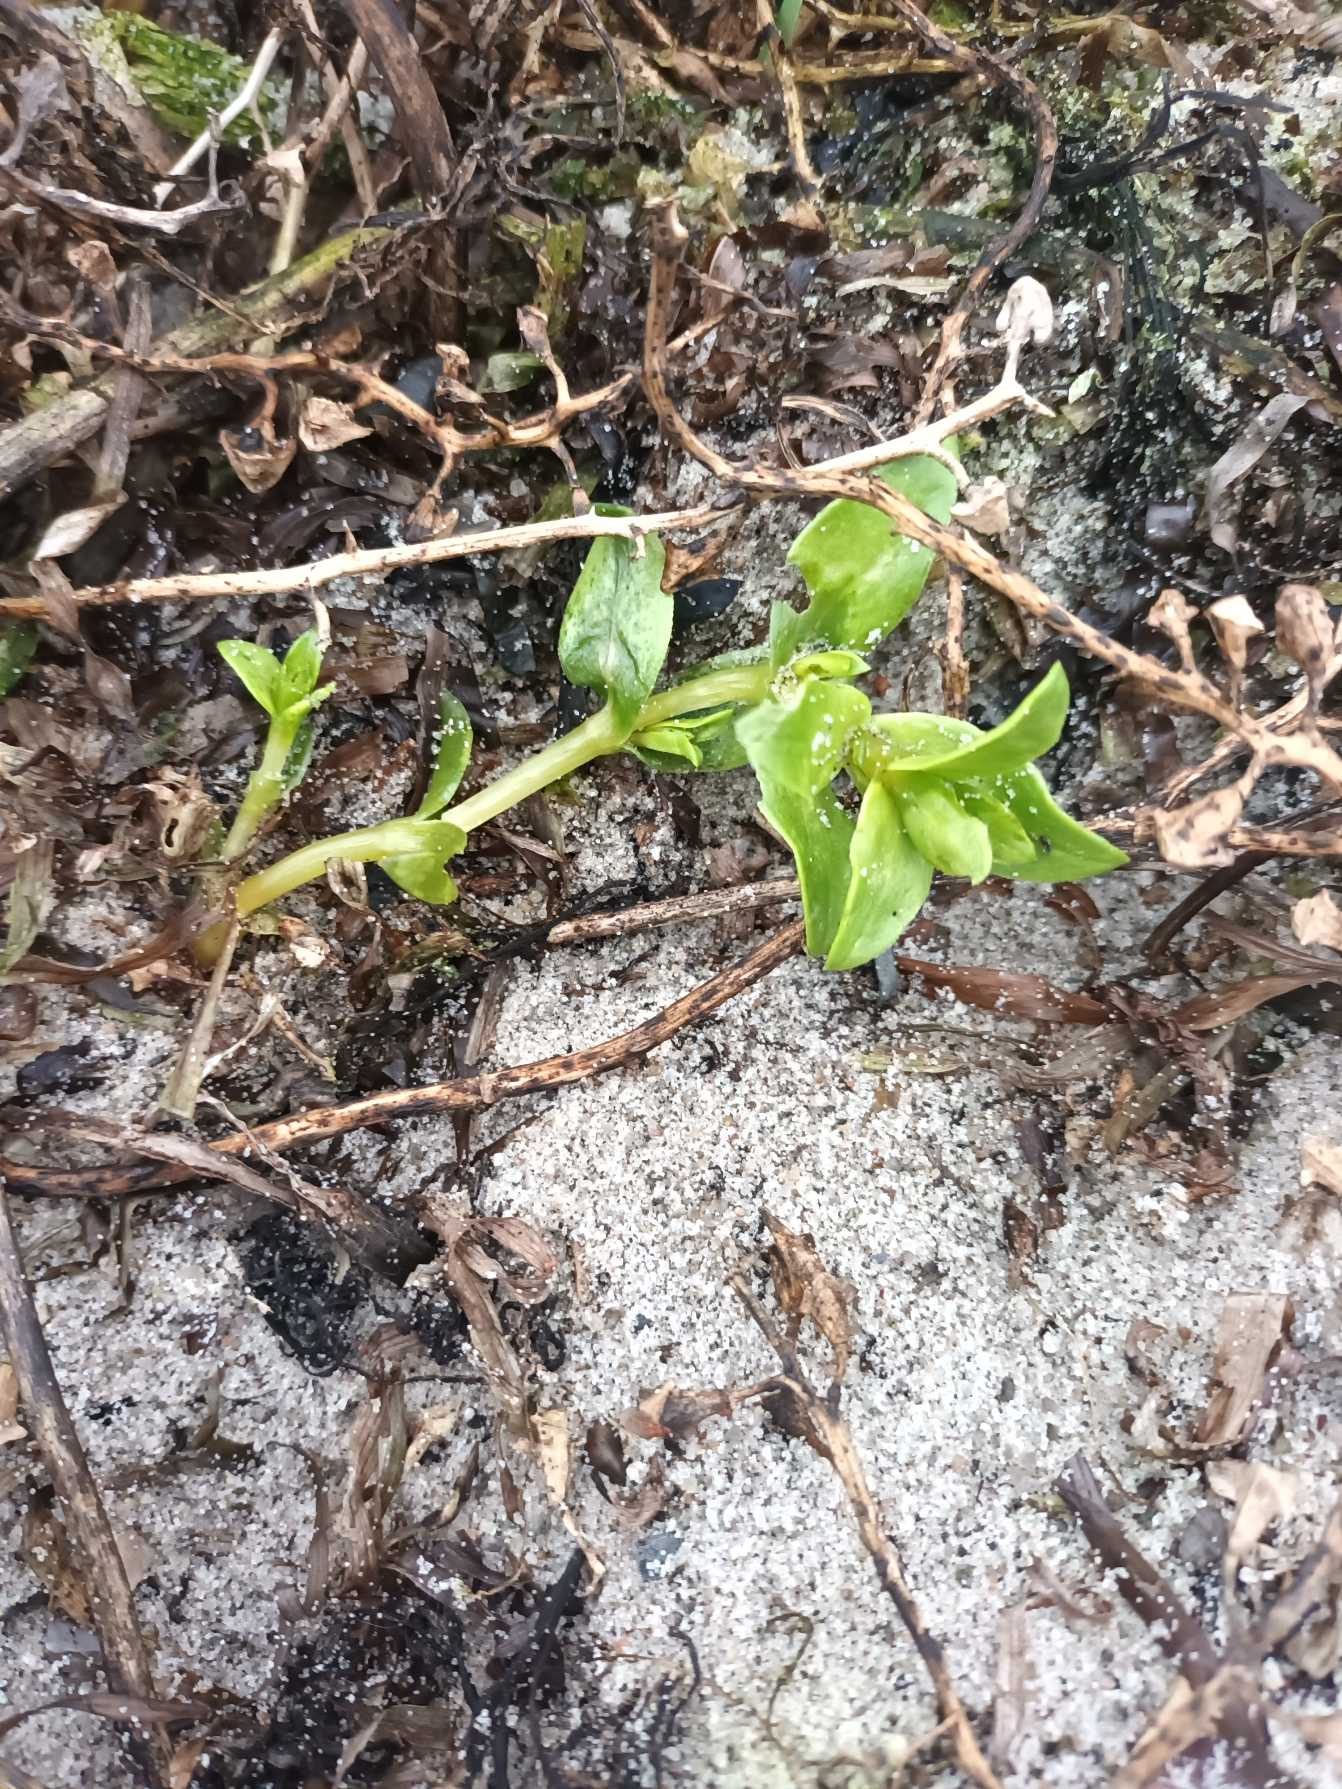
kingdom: Plantae
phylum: Tracheophyta
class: Magnoliopsida
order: Caryophyllales
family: Caryophyllaceae
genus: Honckenya
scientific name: Honckenya peploides
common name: Strandarve
